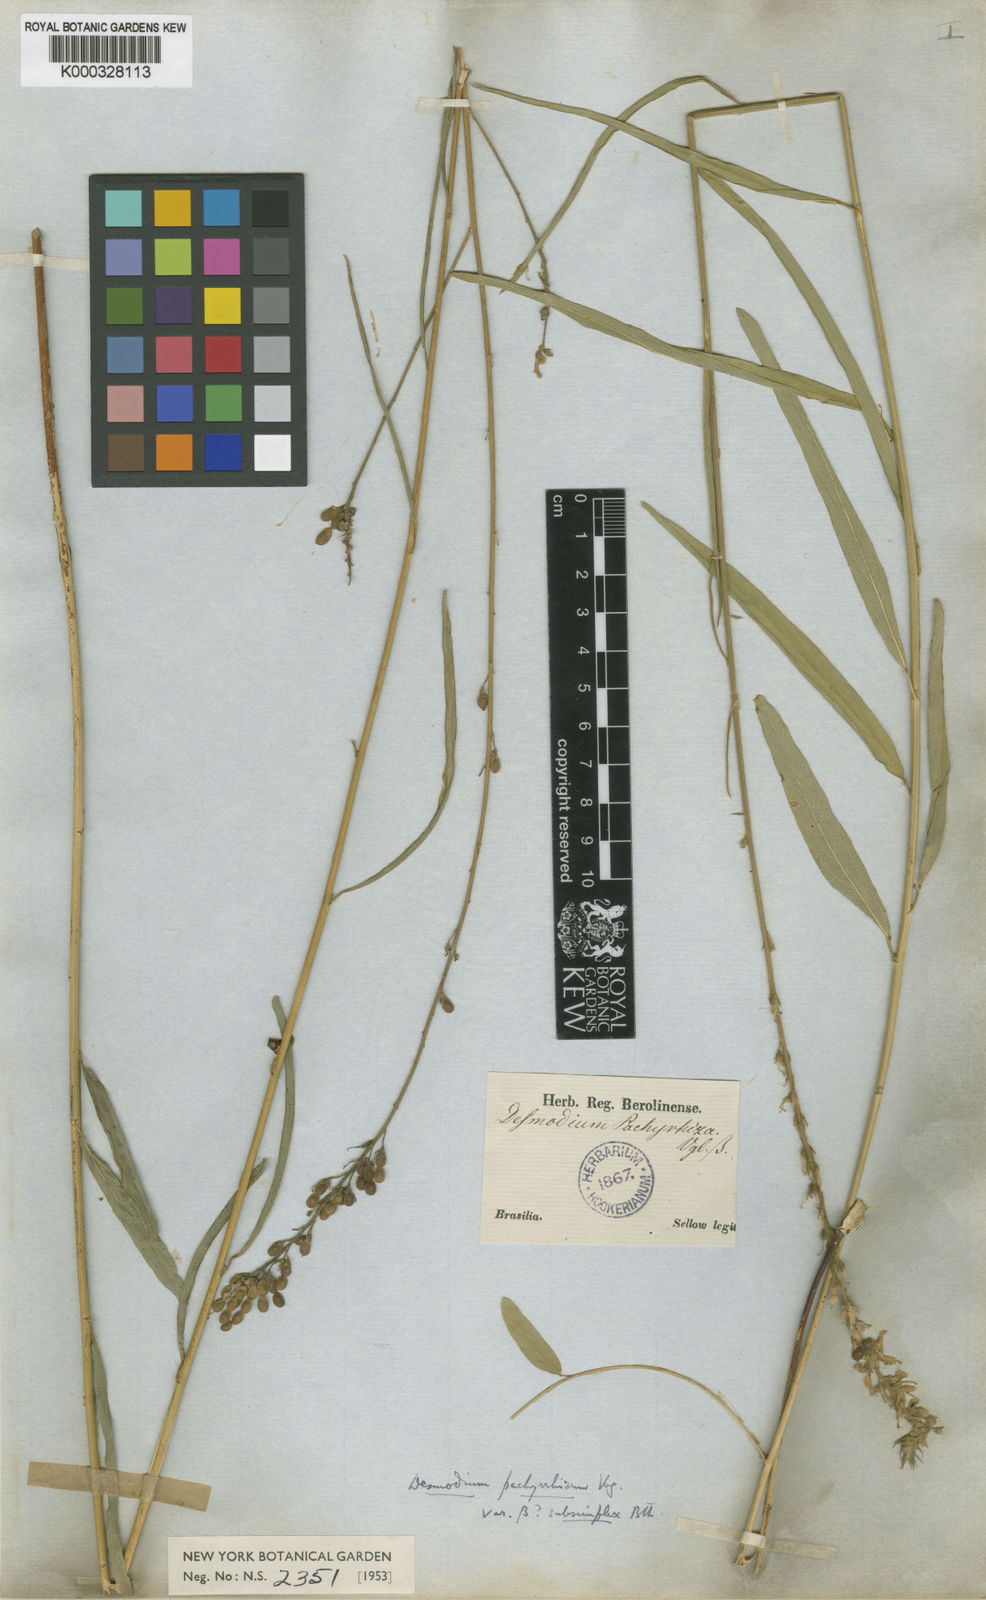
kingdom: Plantae
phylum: Tracheophyta
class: Magnoliopsida
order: Fabales
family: Fabaceae
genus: Desmodium
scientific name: Desmodium polygaloides
